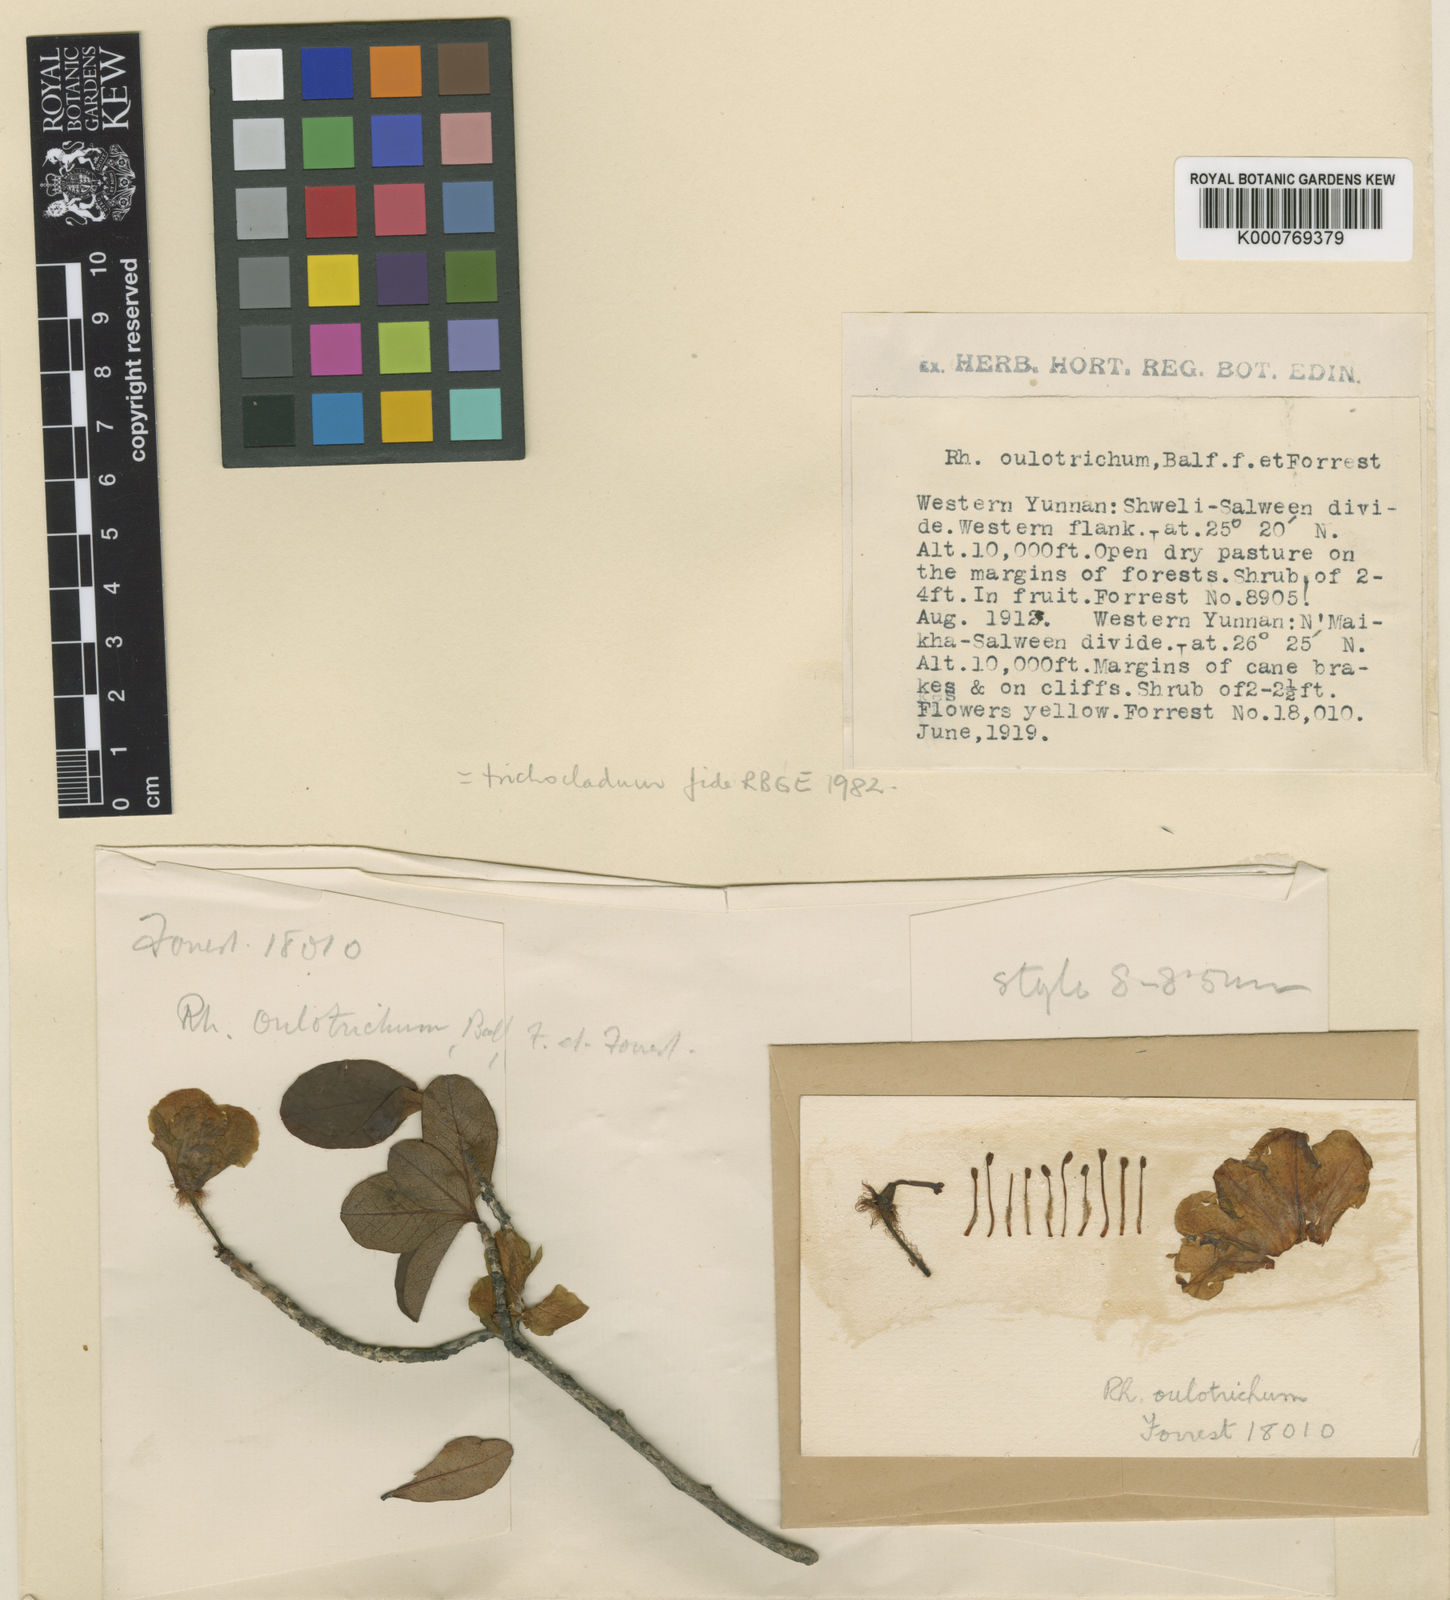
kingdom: Plantae
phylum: Tracheophyta
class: Magnoliopsida
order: Ericales
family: Ericaceae
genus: Rhododendron
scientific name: Rhododendron trichocladum
